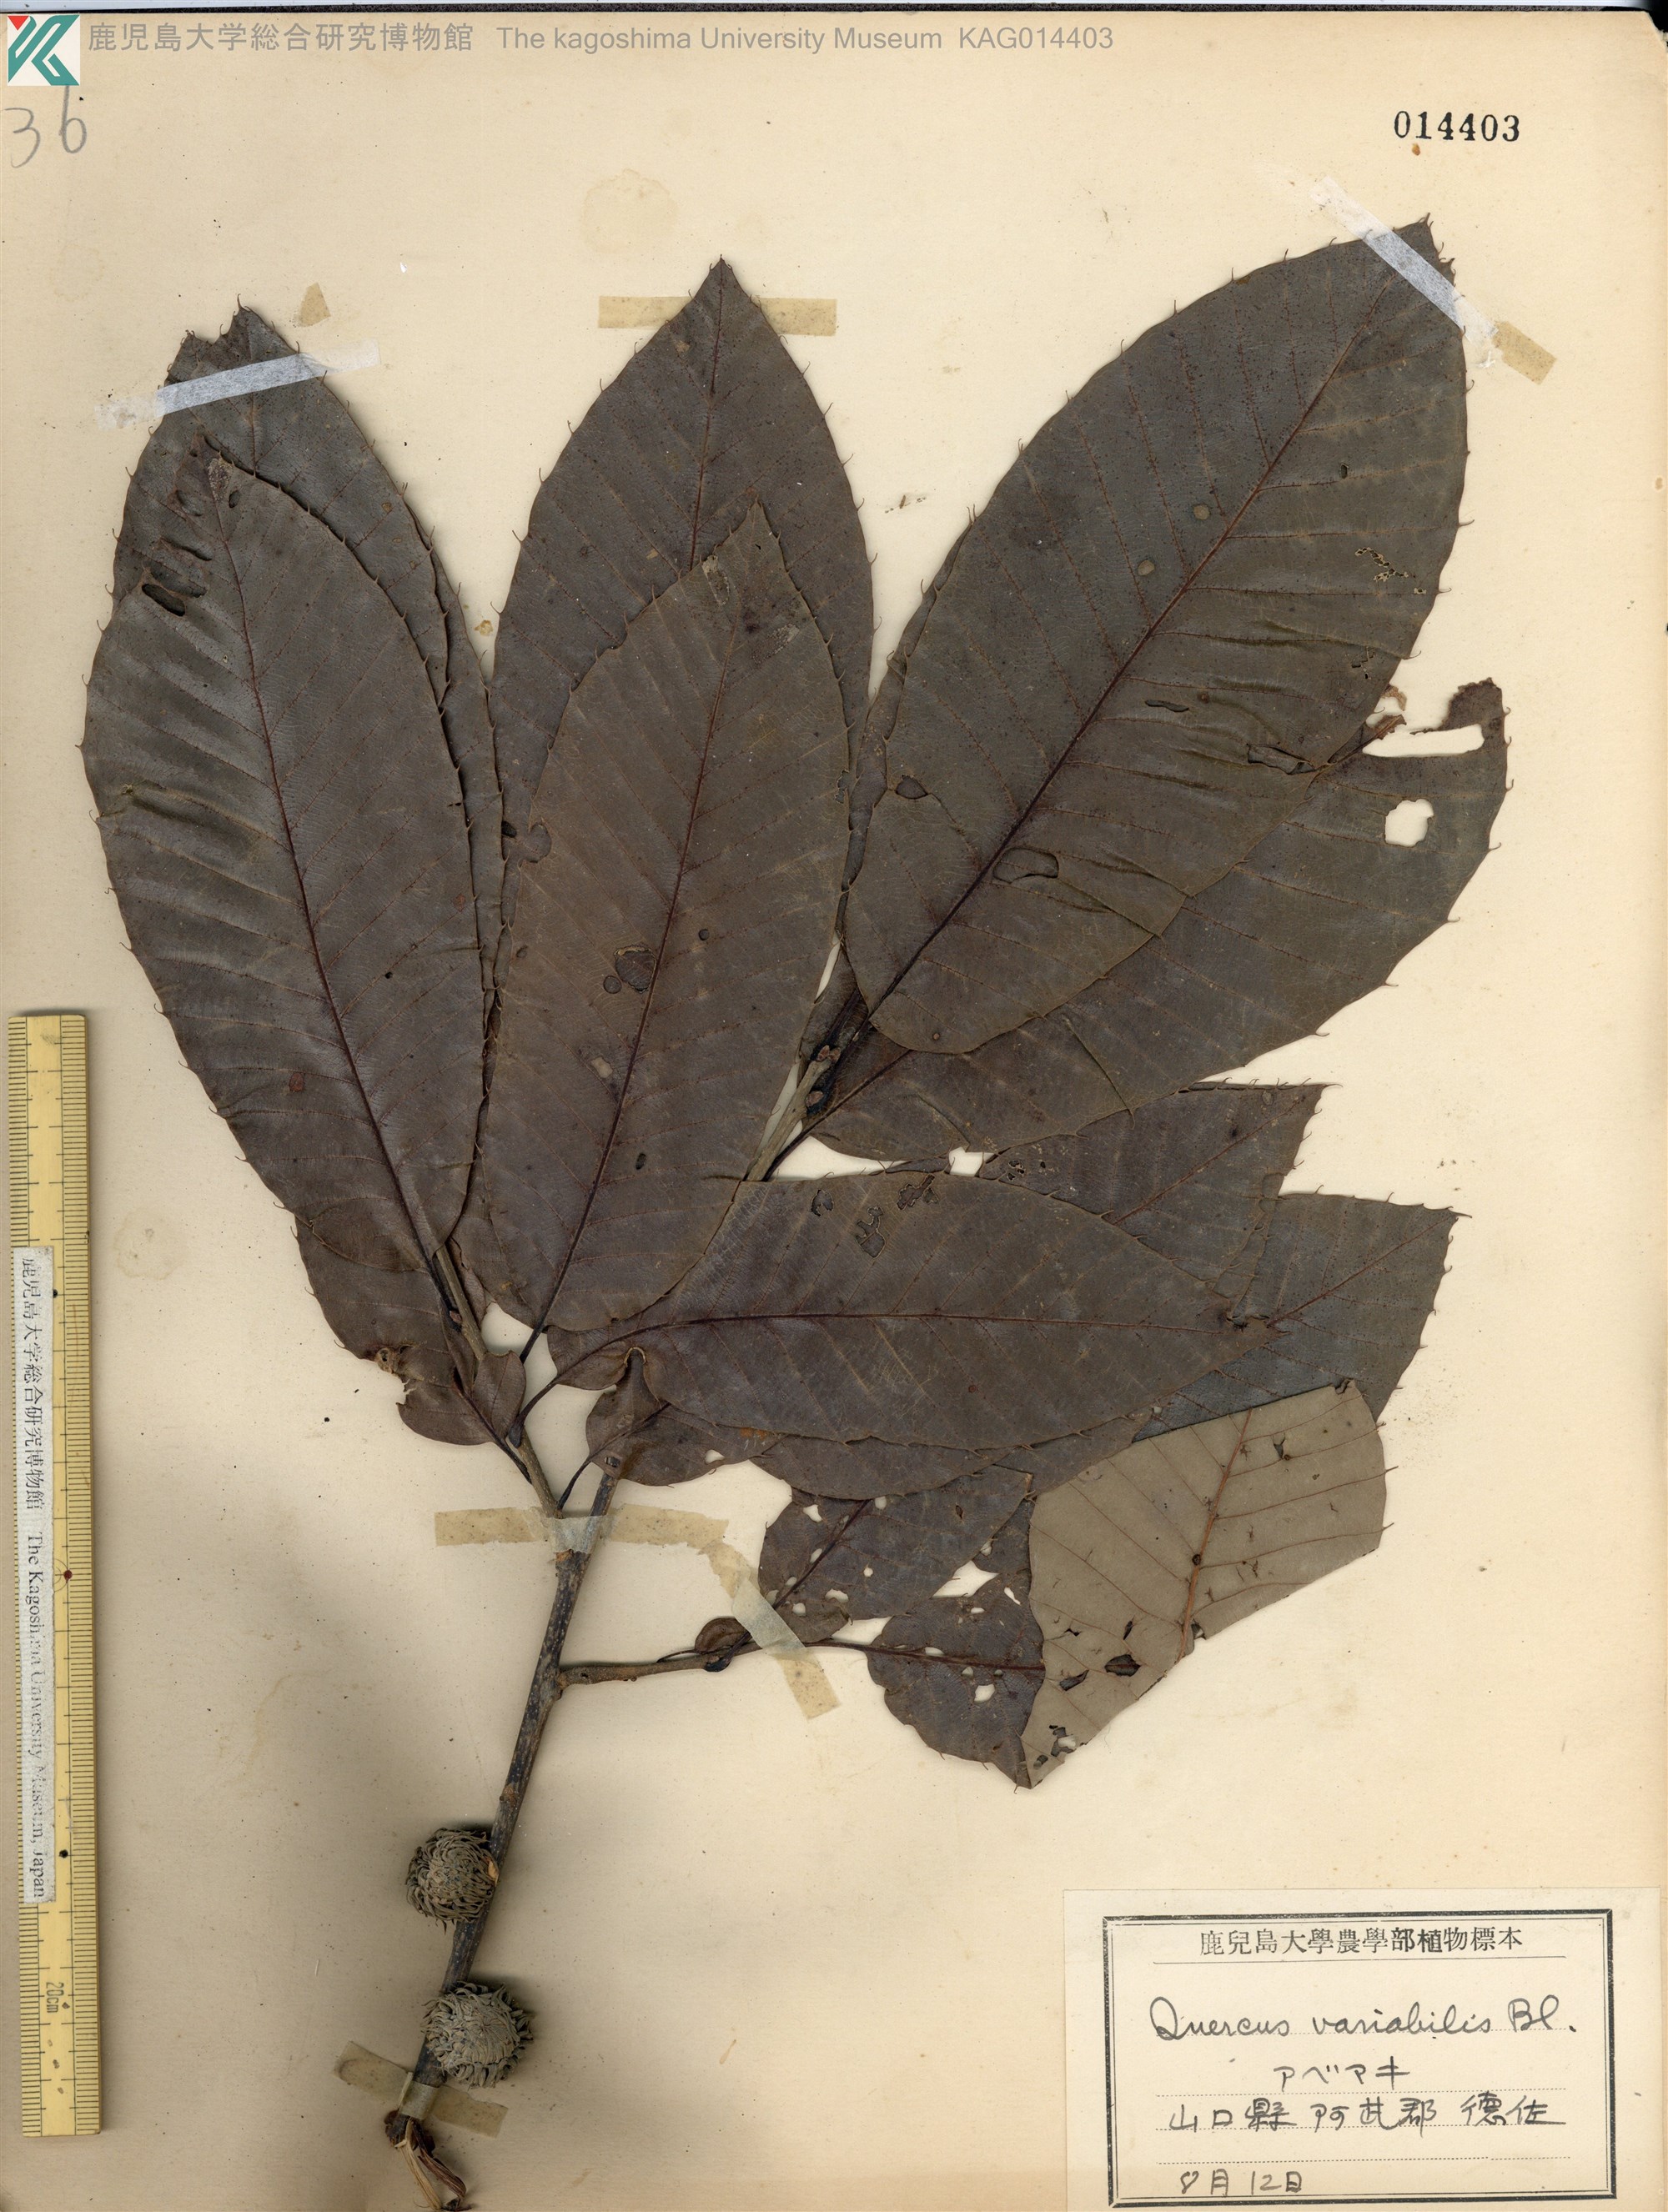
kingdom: Plantae
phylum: Tracheophyta
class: Magnoliopsida
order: Fagales
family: Fagaceae
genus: Quercus
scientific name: Quercus variabilis
